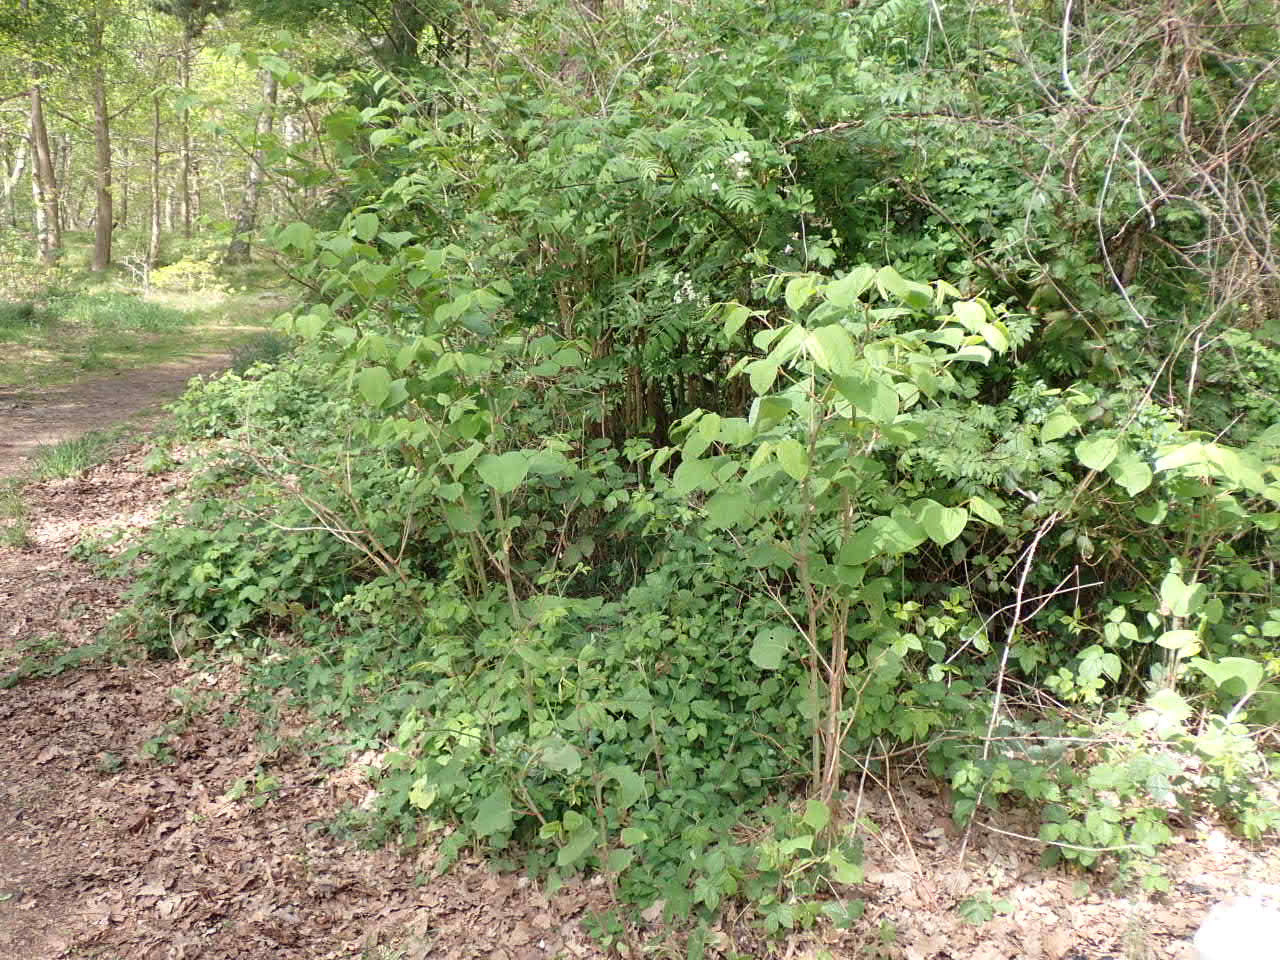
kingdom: Plantae
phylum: Tracheophyta
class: Magnoliopsida
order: Caryophyllales
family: Polygonaceae
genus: Reynoutria
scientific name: Reynoutria japonica
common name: Japan-pileurt
